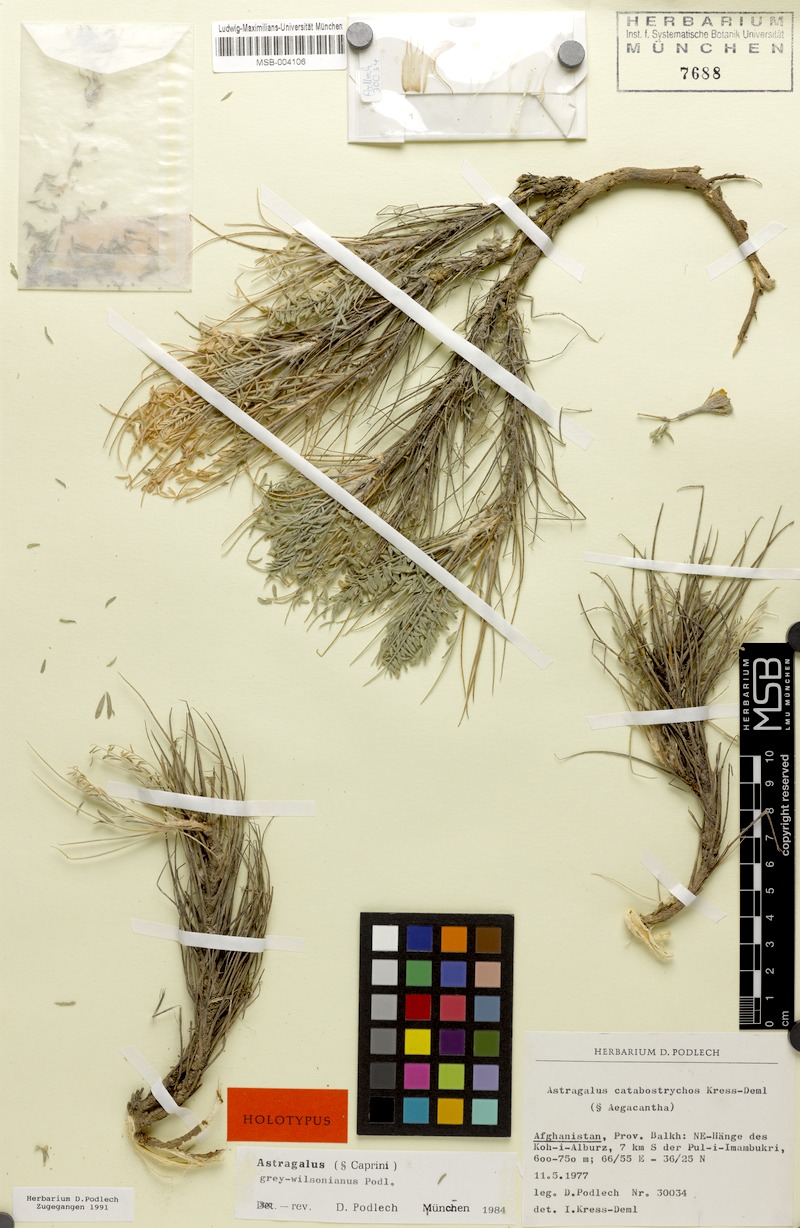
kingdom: Plantae
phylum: Tracheophyta
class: Magnoliopsida
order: Fabales
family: Fabaceae
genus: Astragalus
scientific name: Astragalus grey-wilsonianus
